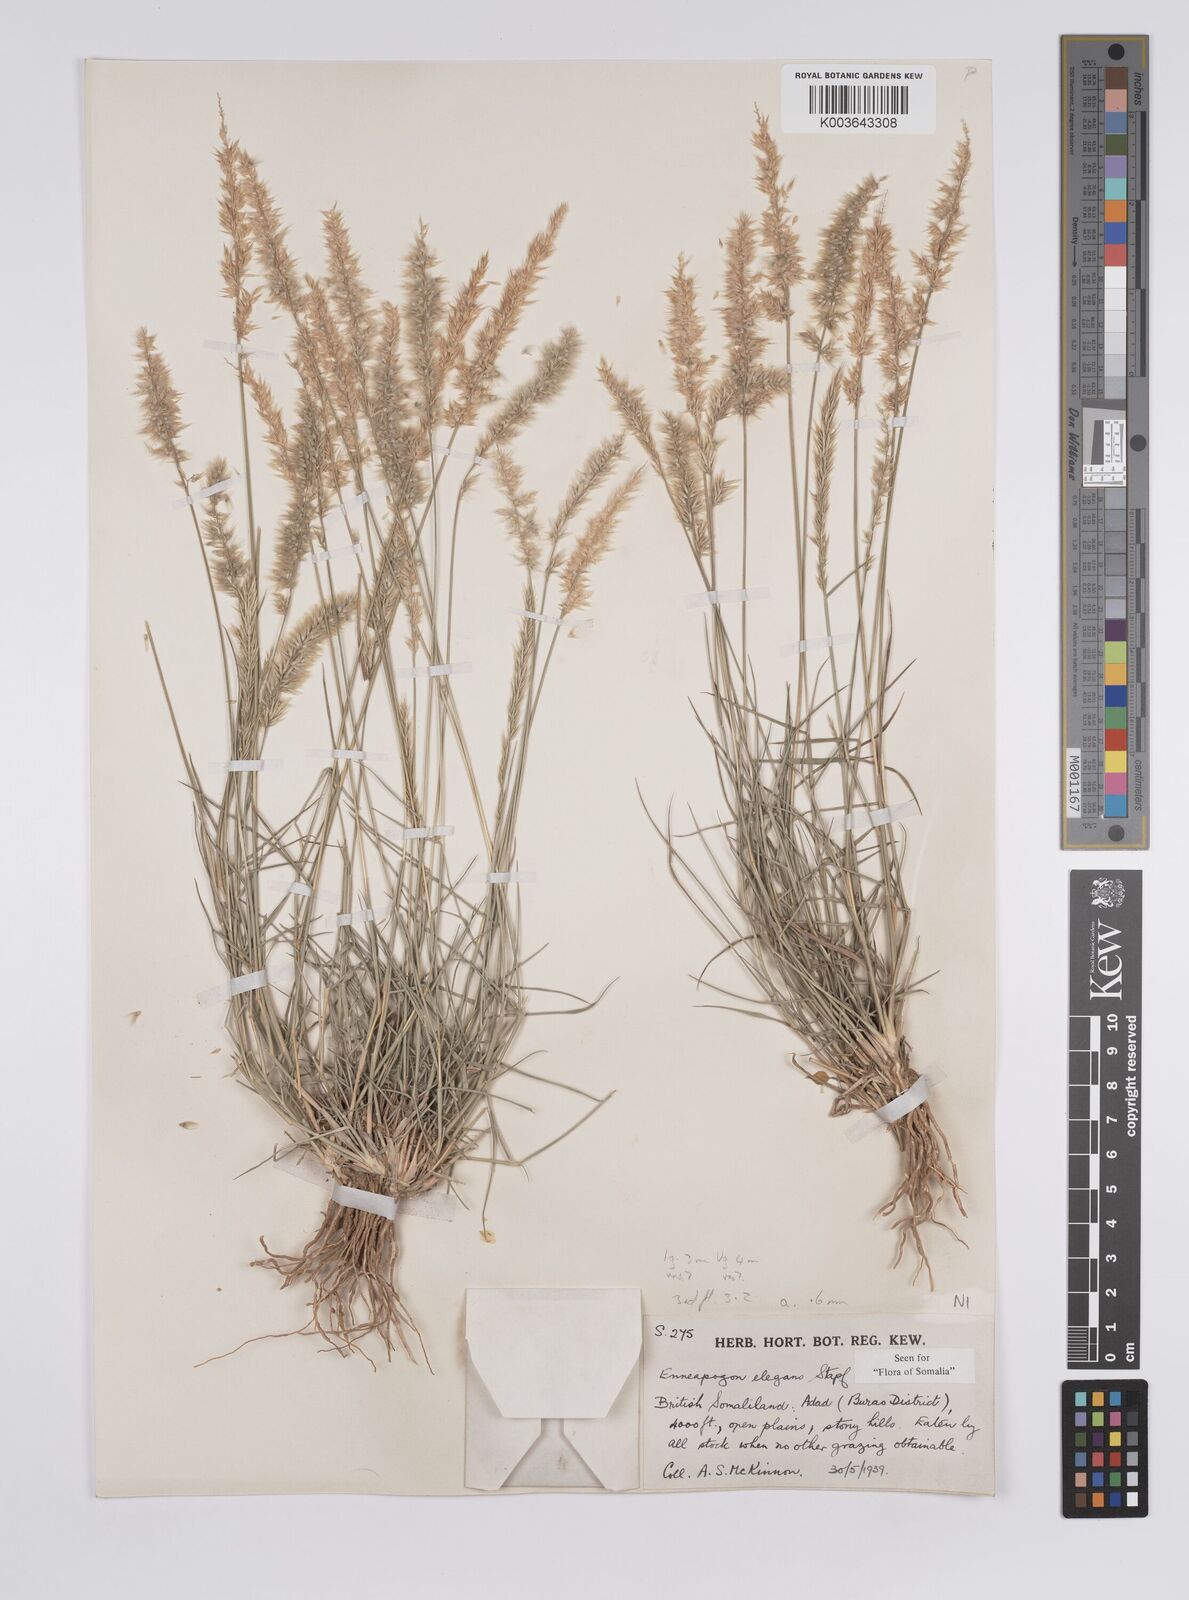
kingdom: Plantae
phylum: Tracheophyta
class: Liliopsida
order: Poales
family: Poaceae
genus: Enneapogon
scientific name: Enneapogon persicus
